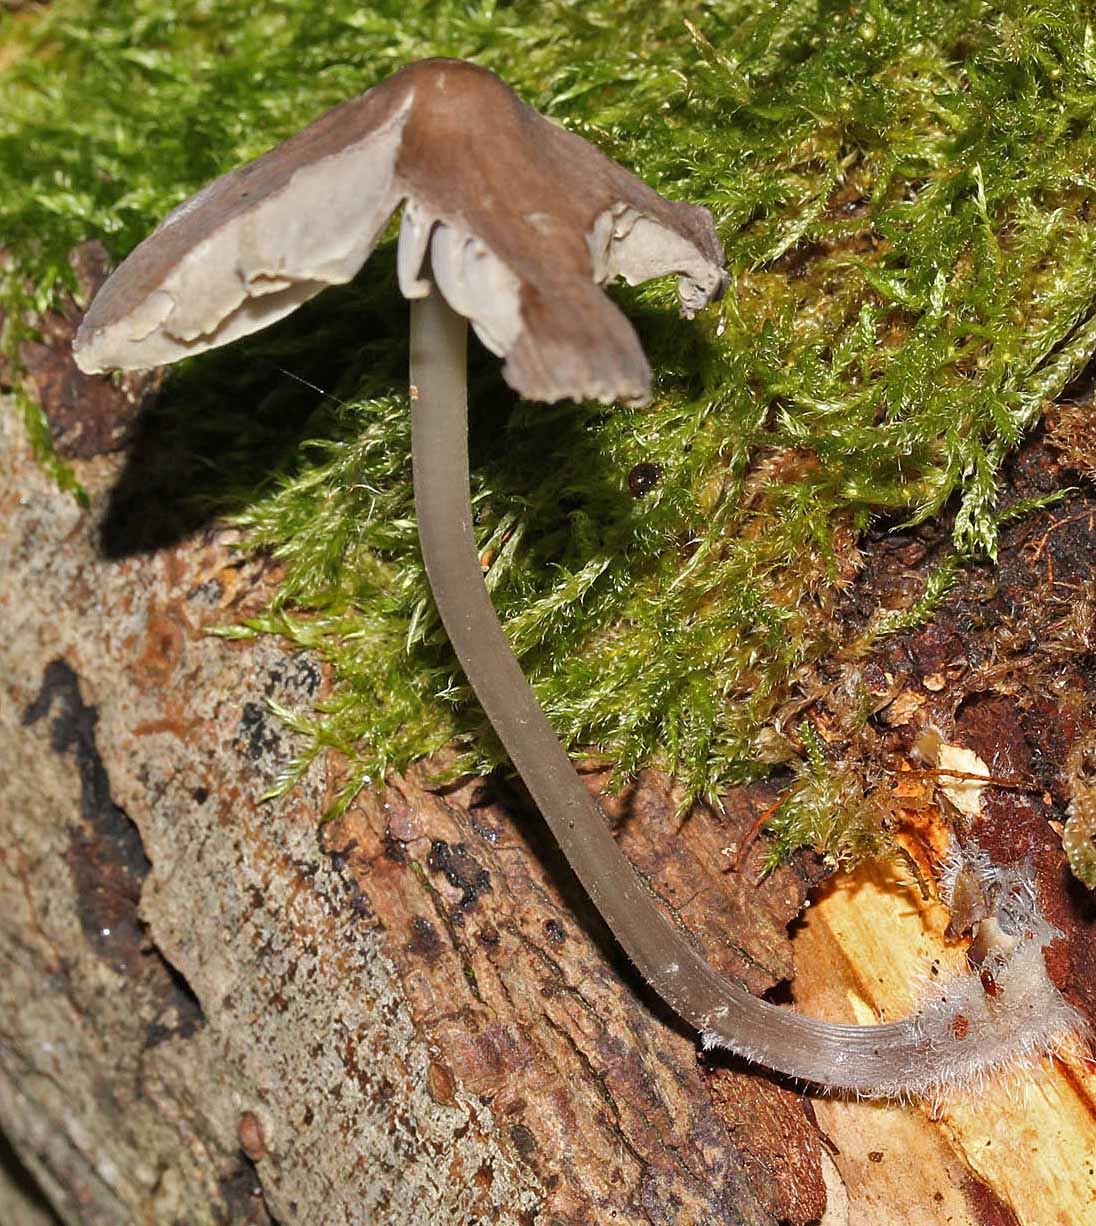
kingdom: Fungi
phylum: Basidiomycota
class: Agaricomycetes
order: Agaricales
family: Mycenaceae
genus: Mycena
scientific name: Mycena galericulata
